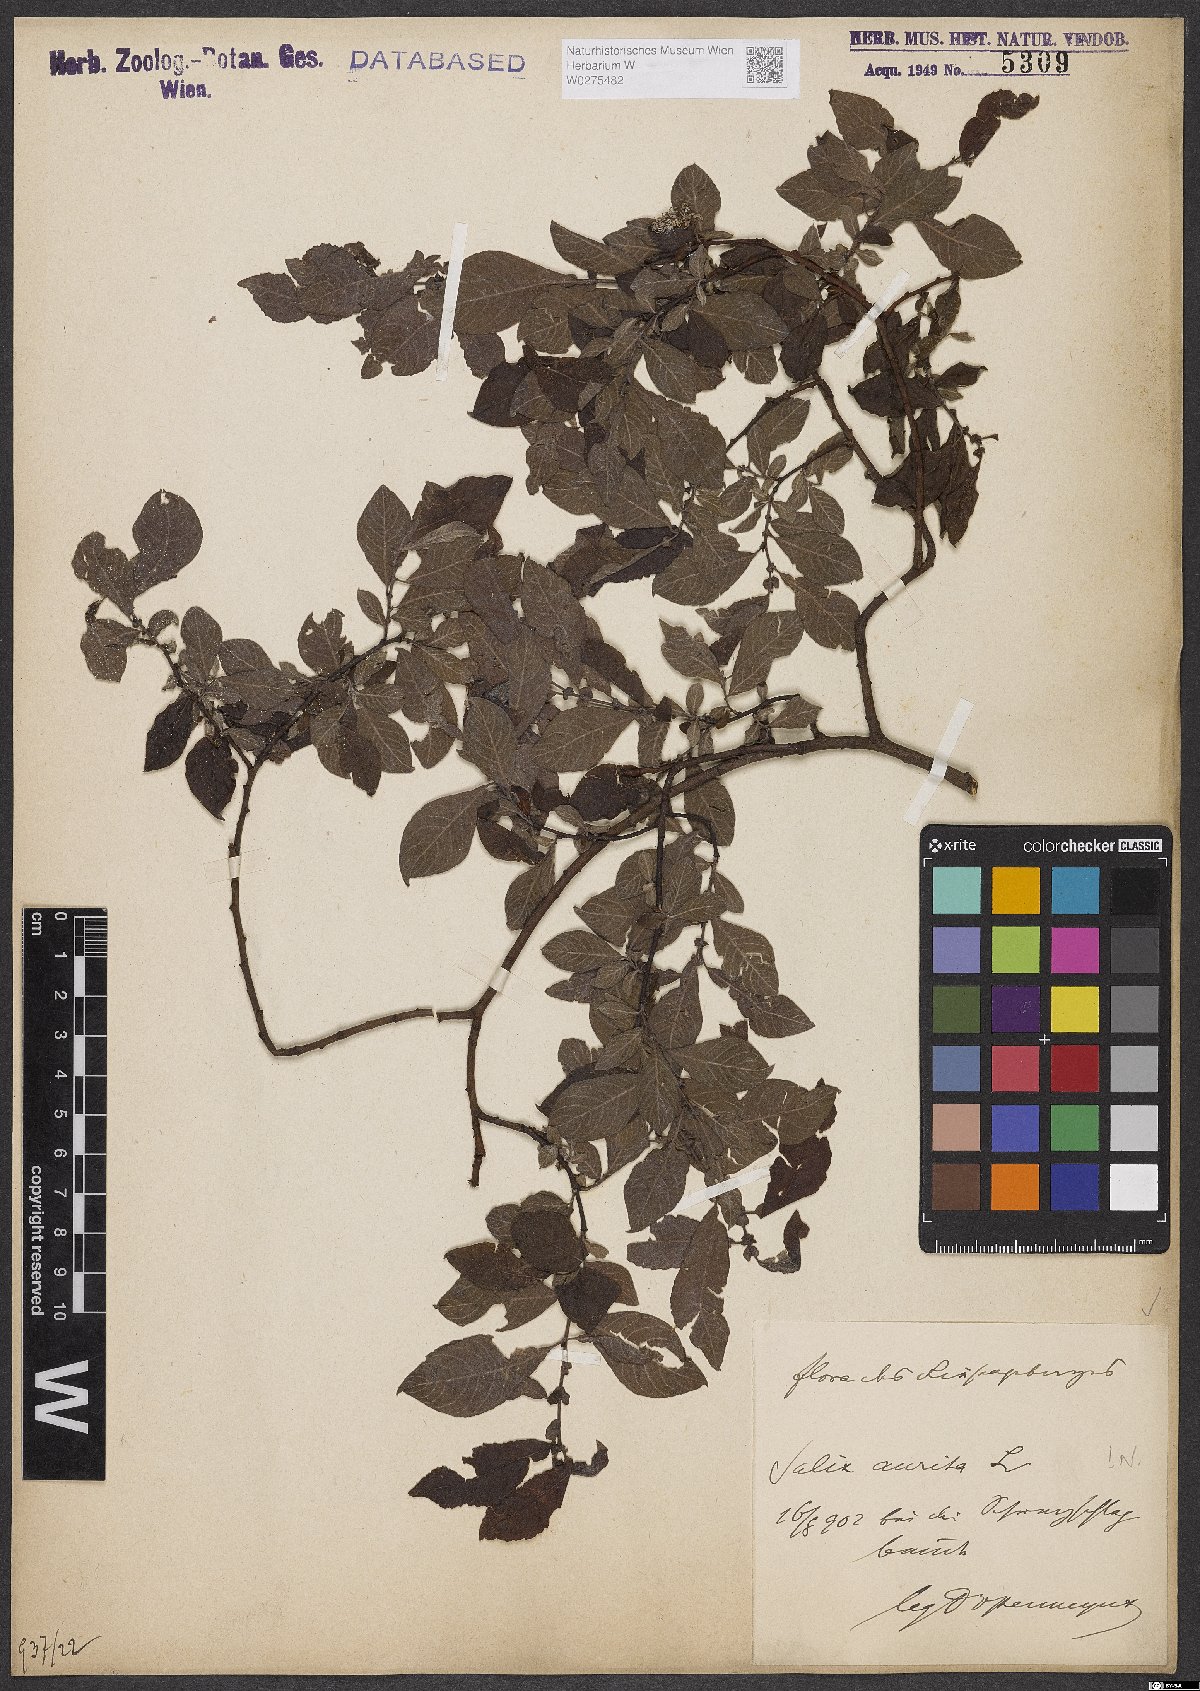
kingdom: Plantae
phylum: Tracheophyta
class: Magnoliopsida
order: Malpighiales
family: Salicaceae
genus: Salix
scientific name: Salix aurita
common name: Eared willow
